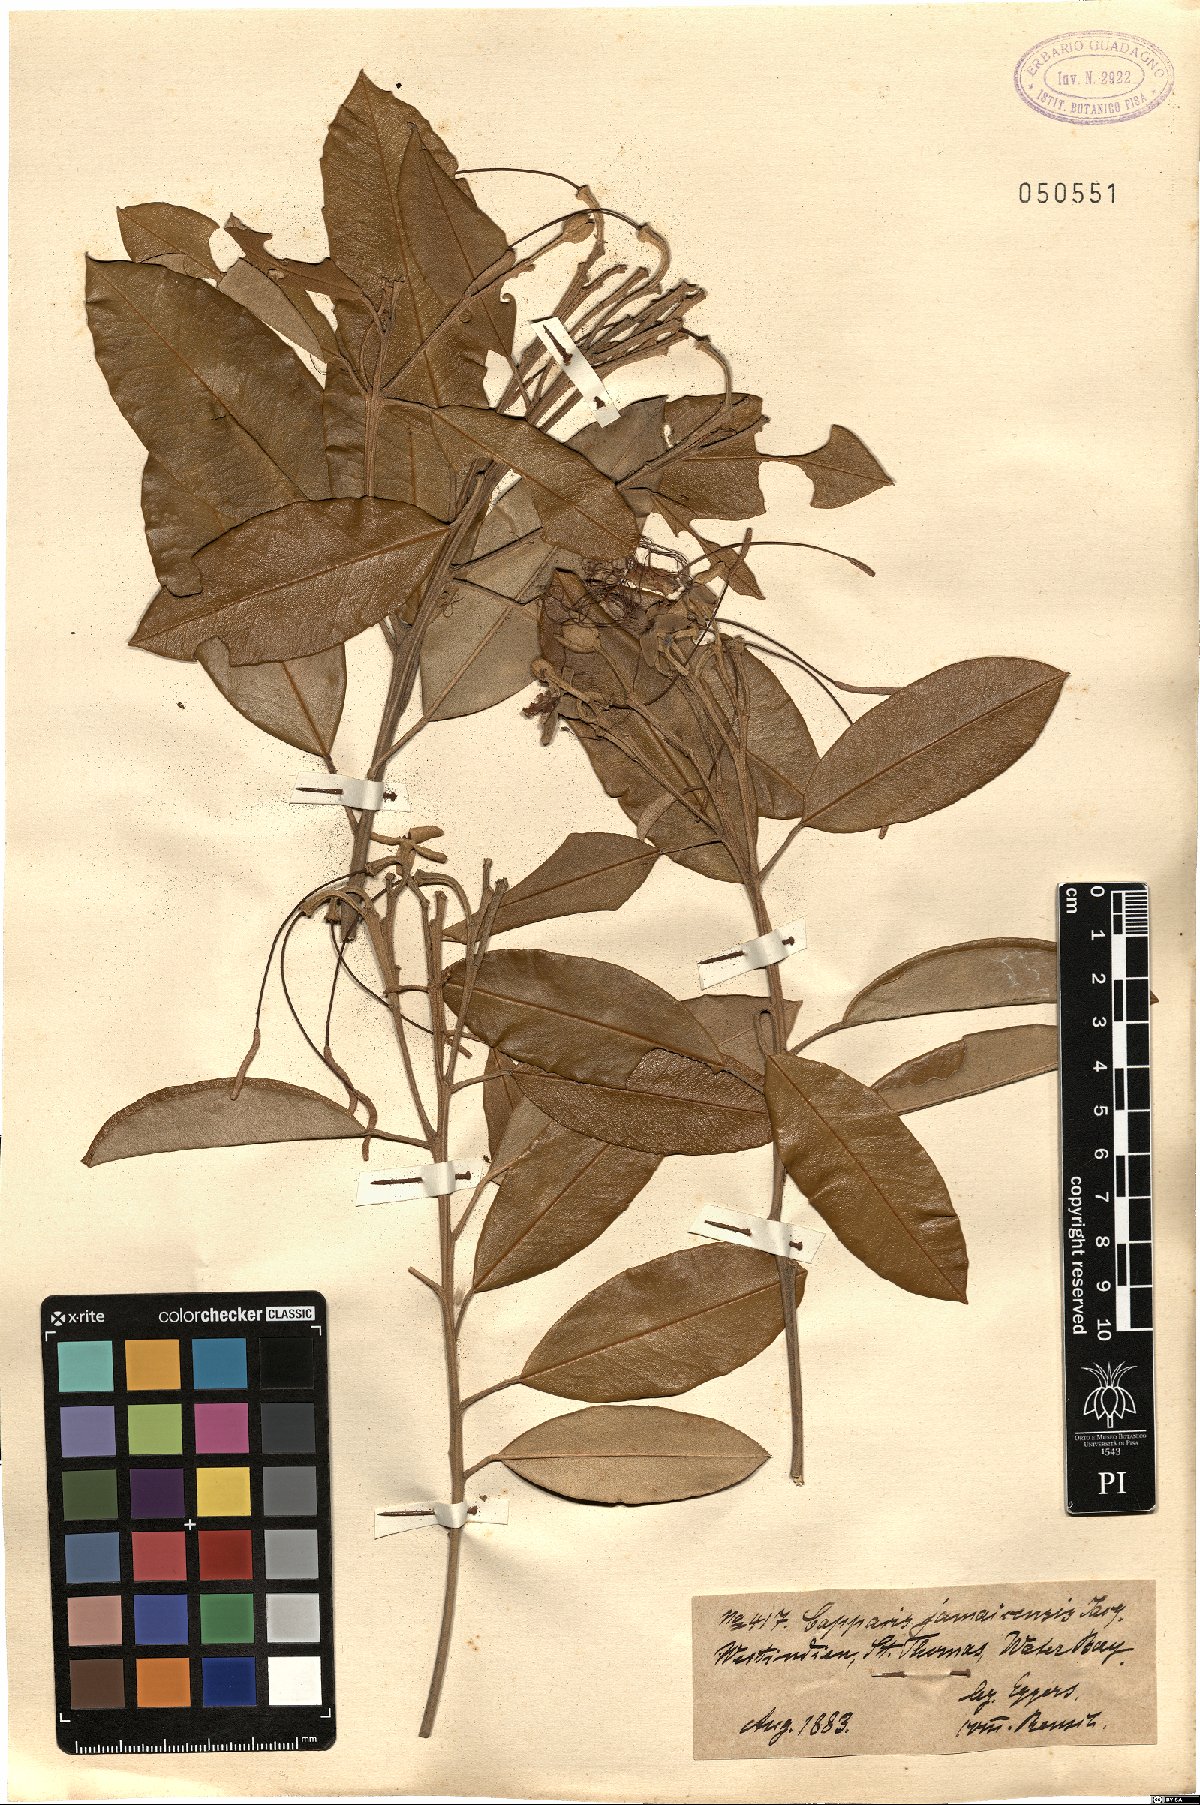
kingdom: Plantae
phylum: Tracheophyta
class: Magnoliopsida
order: Brassicales
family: Capparaceae
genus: Quadrella
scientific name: Quadrella cynophallophora
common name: Black willow
